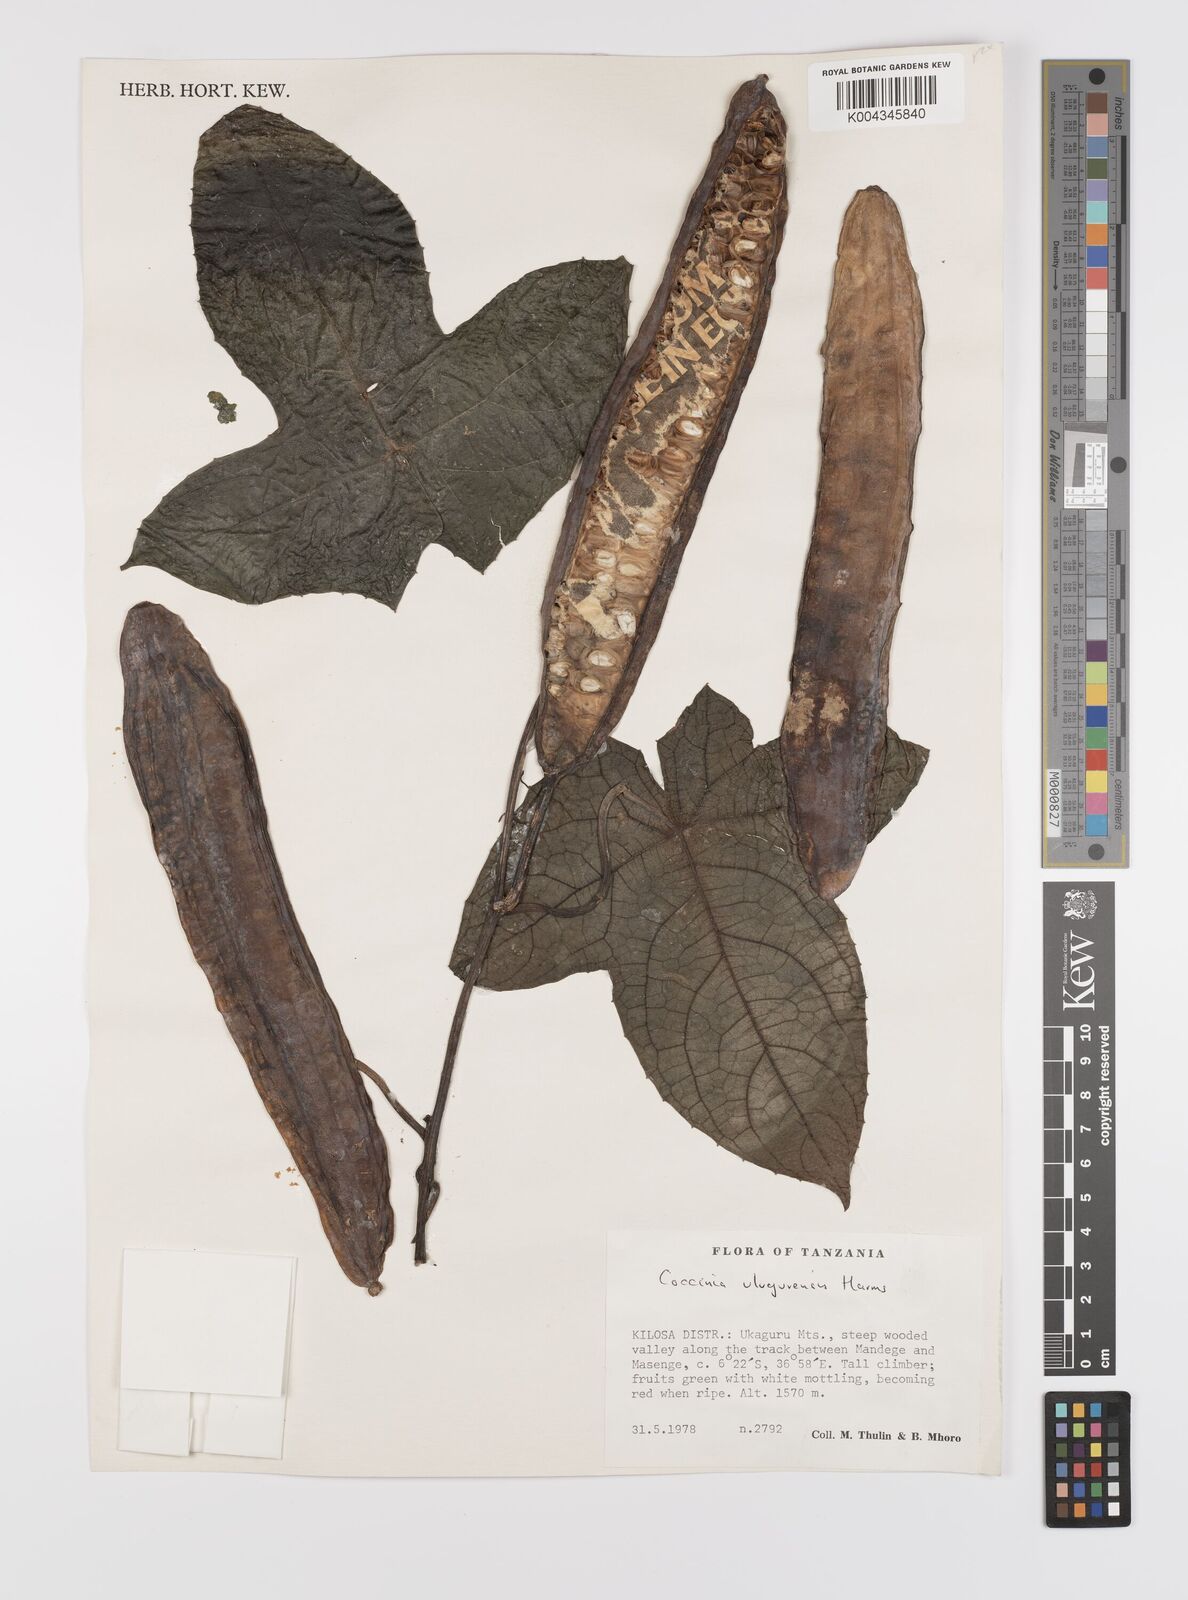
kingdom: Plantae
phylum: Tracheophyta
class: Magnoliopsida
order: Cucurbitales
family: Cucurbitaceae
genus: Coccinia
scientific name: Coccinia mildbraedii
